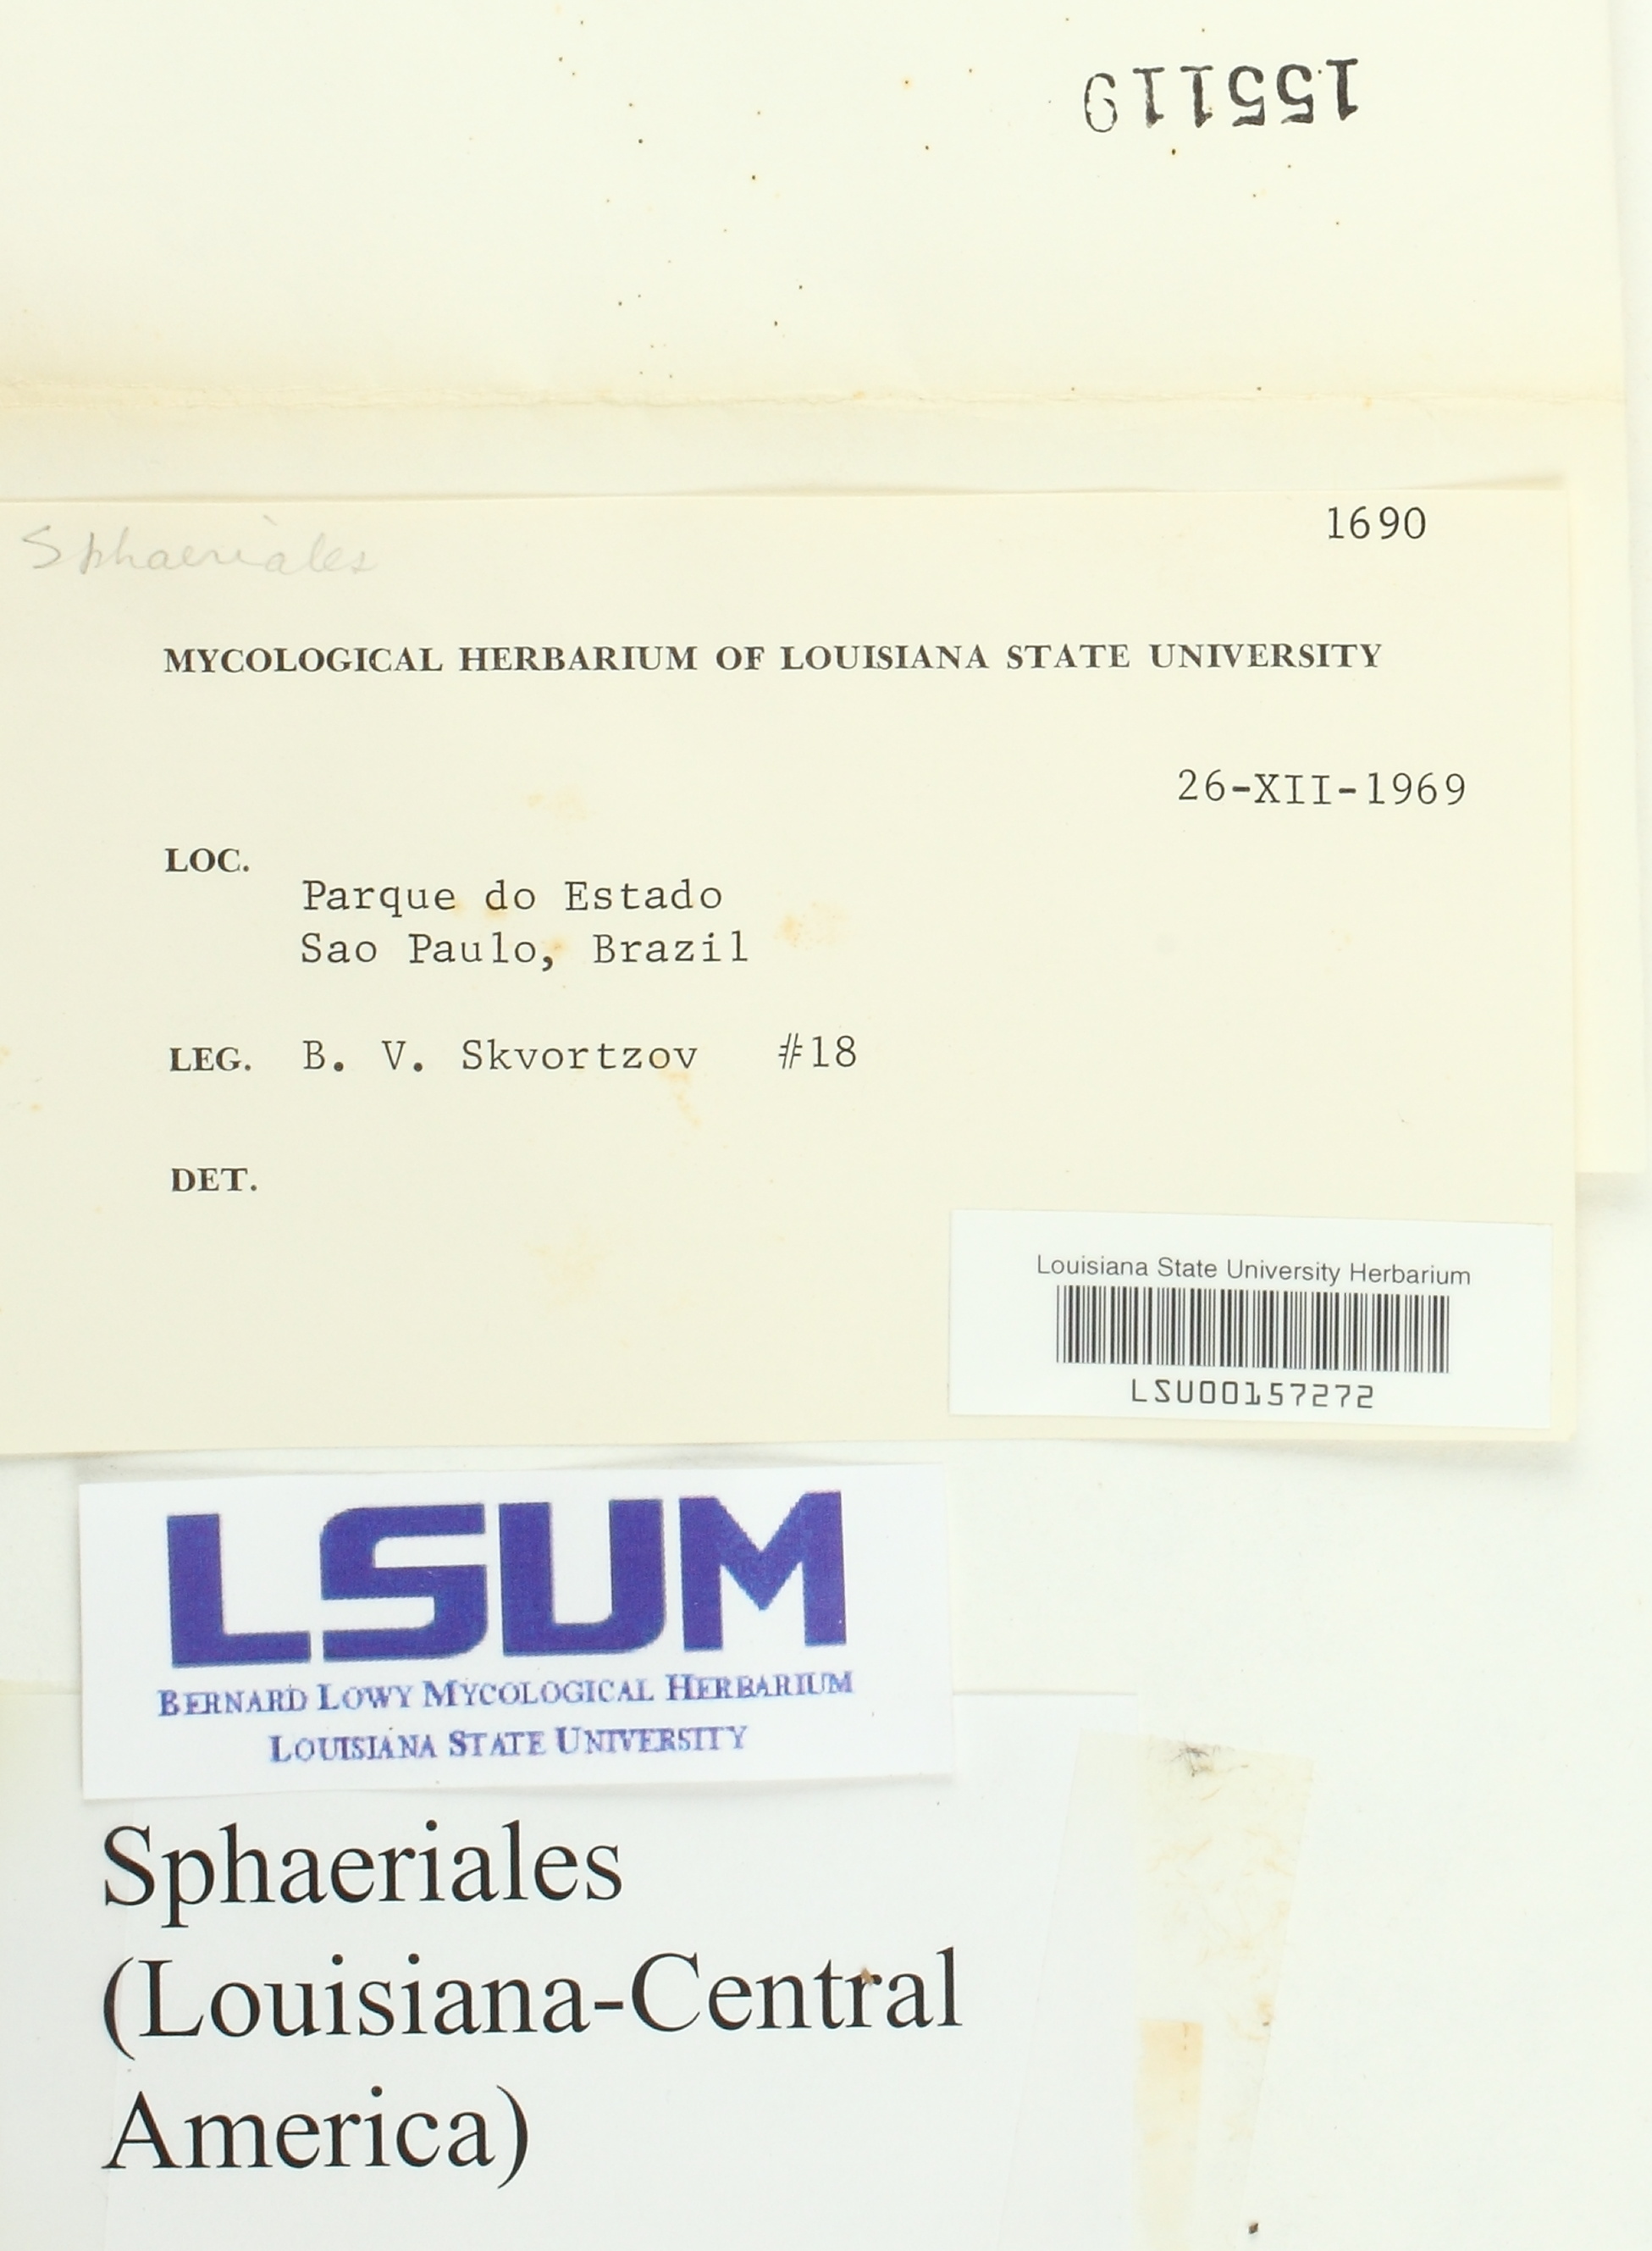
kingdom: Fungi
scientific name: Fungi
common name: Fungi
